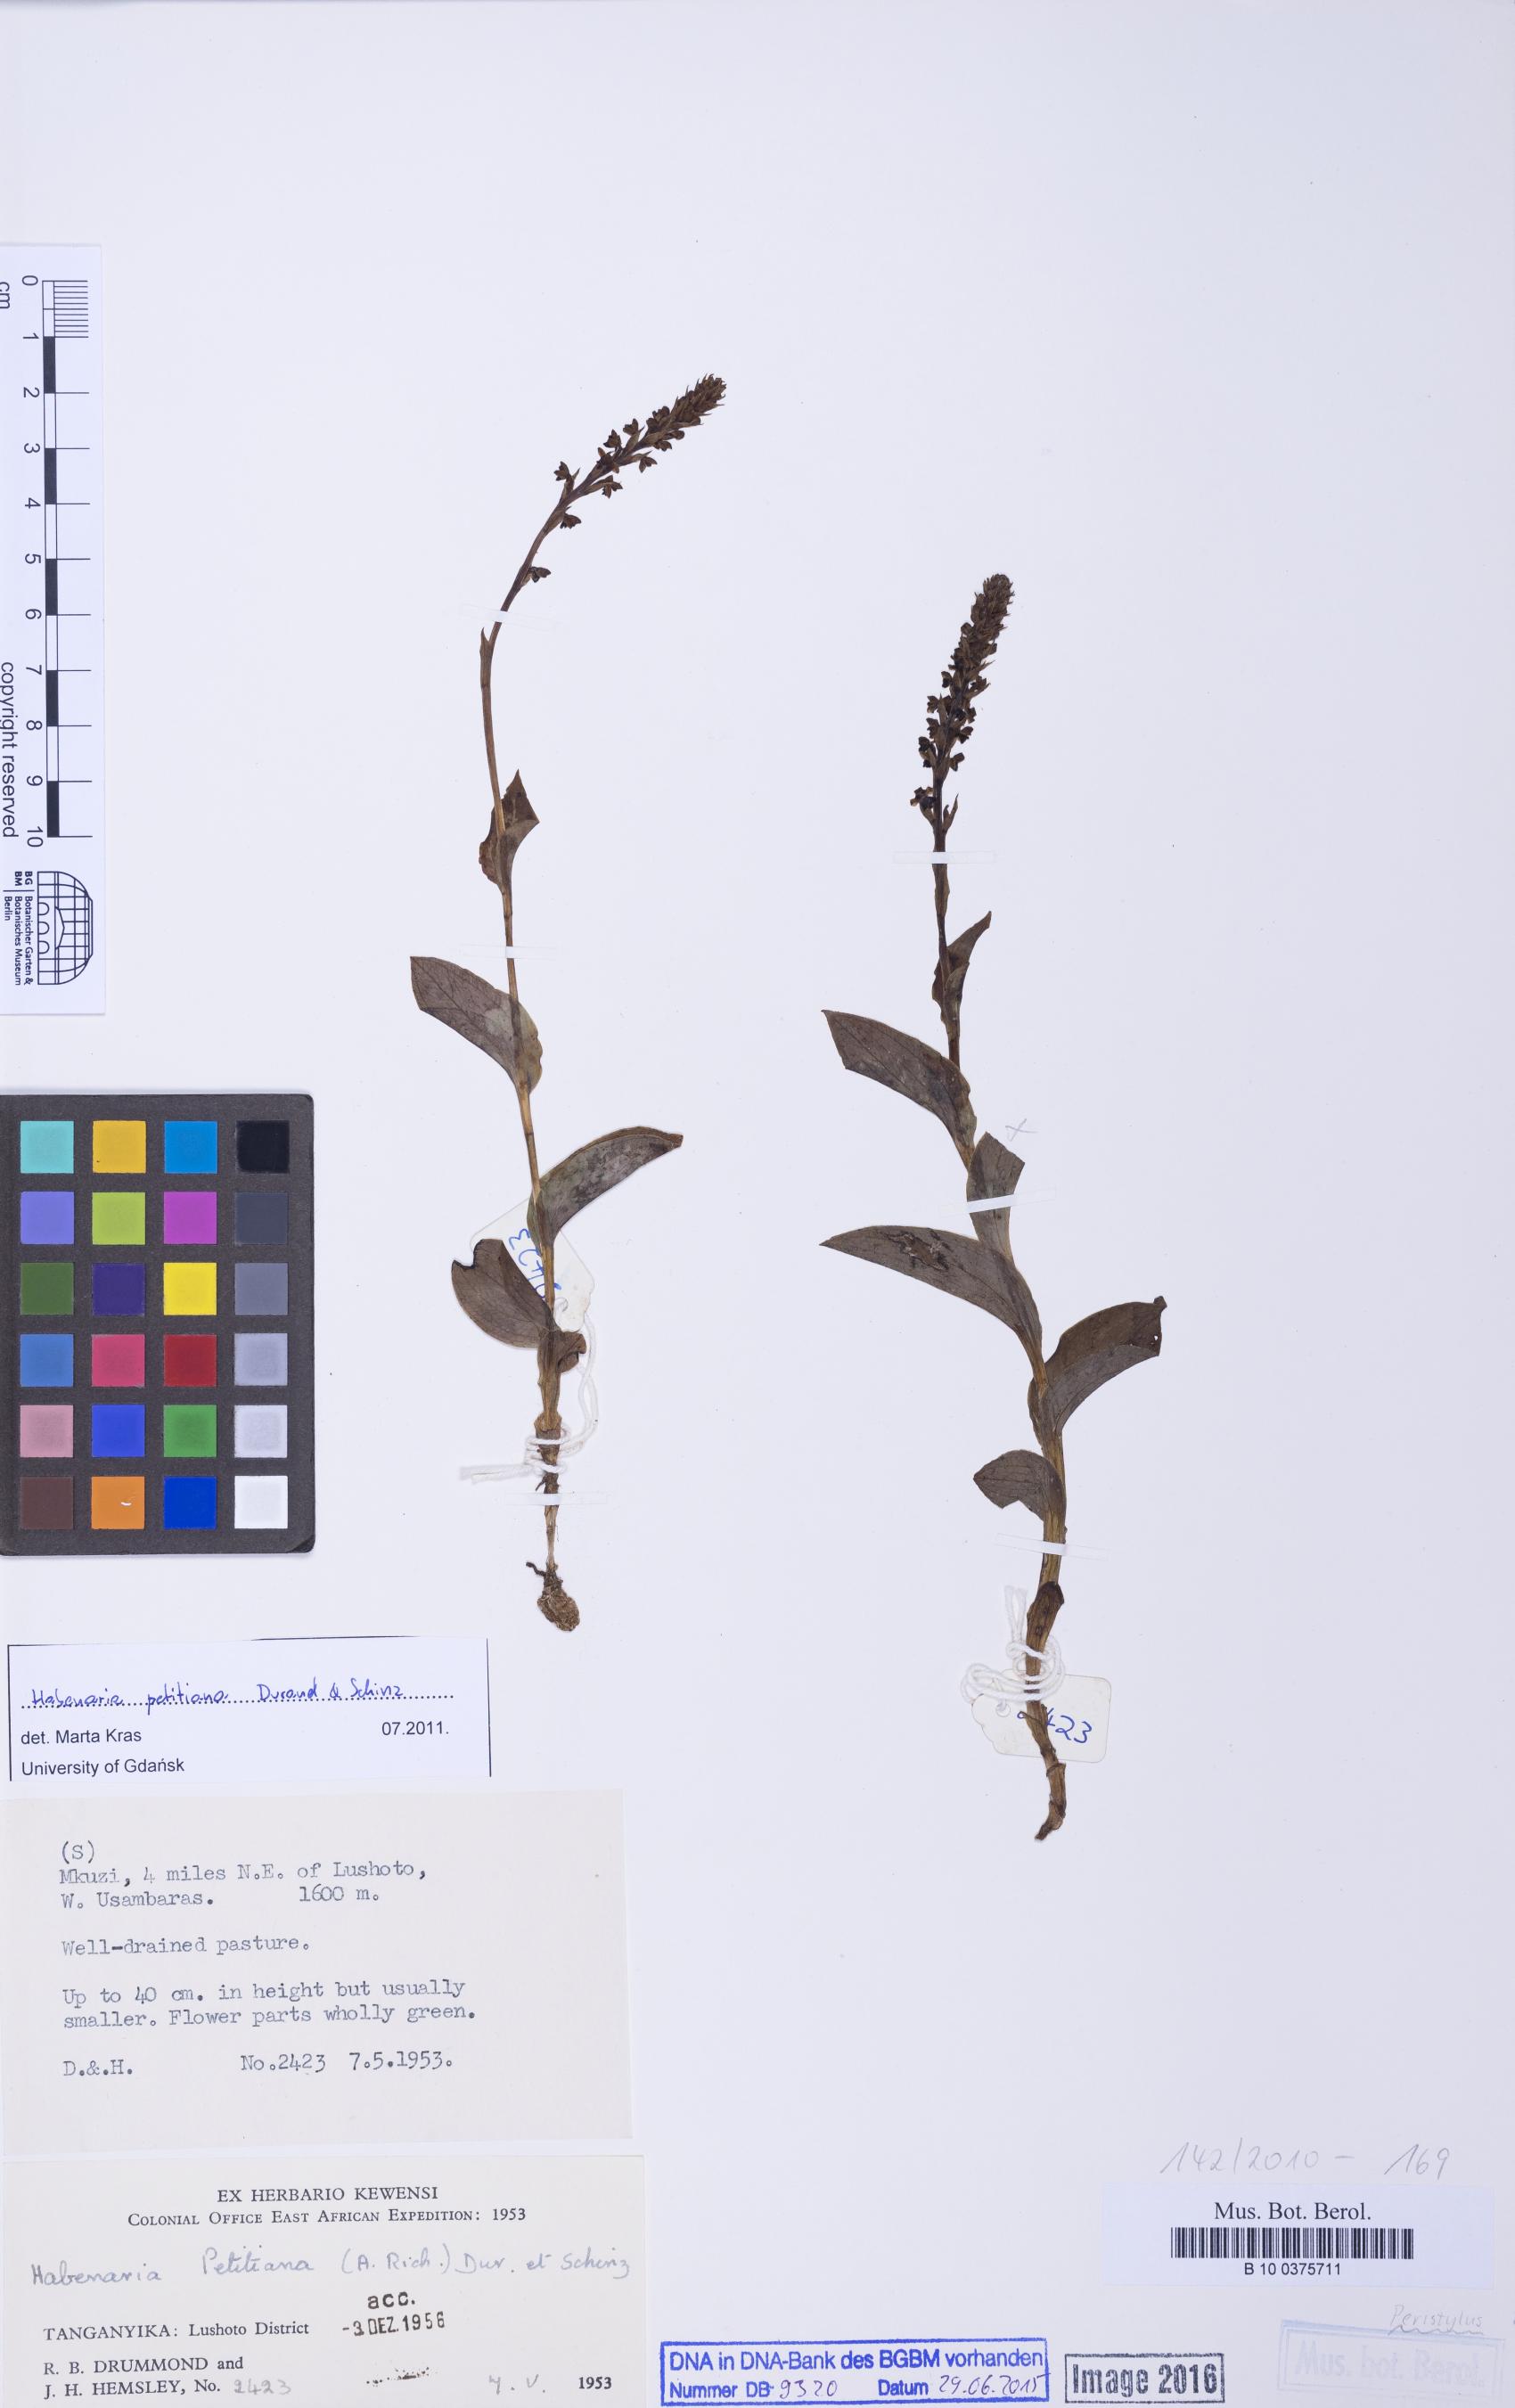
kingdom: Plantae
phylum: Tracheophyta
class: Liliopsida
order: Asparagales
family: Orchidaceae
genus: Habenaria
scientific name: Habenaria petitiana
